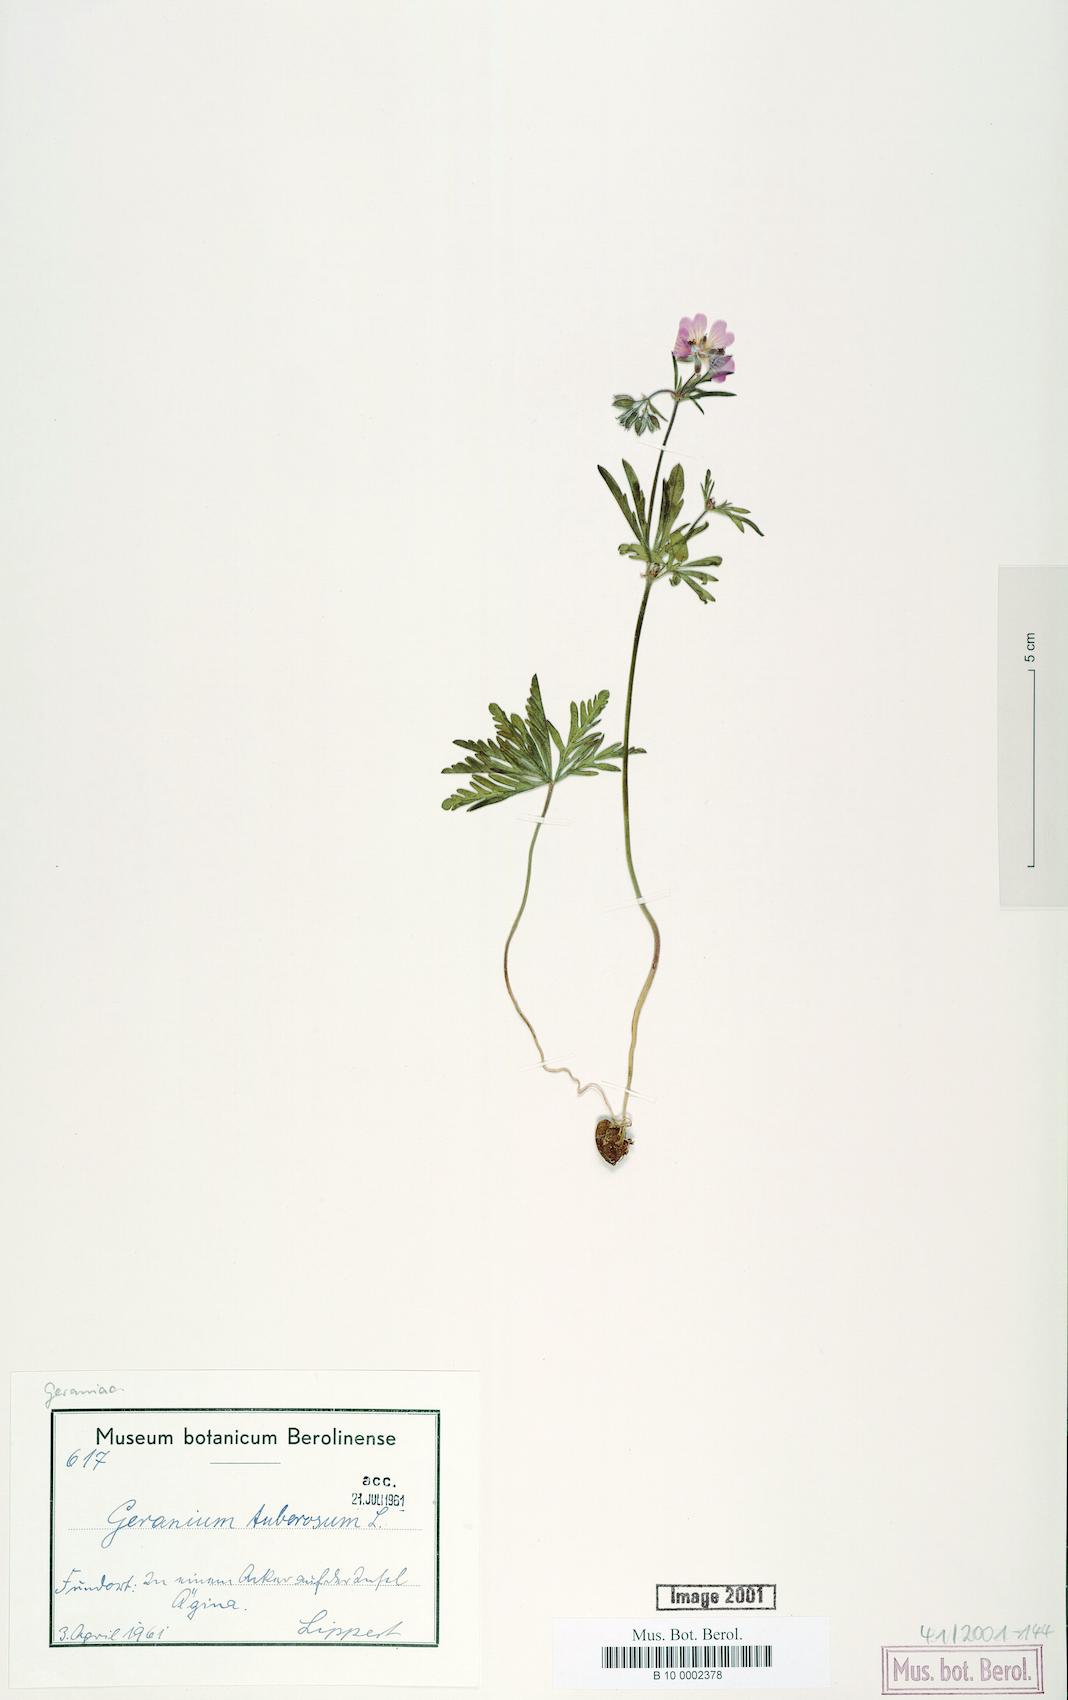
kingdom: Plantae
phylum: Tracheophyta
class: Magnoliopsida
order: Geraniales
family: Geraniaceae
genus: Geranium
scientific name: Geranium tuberosum
